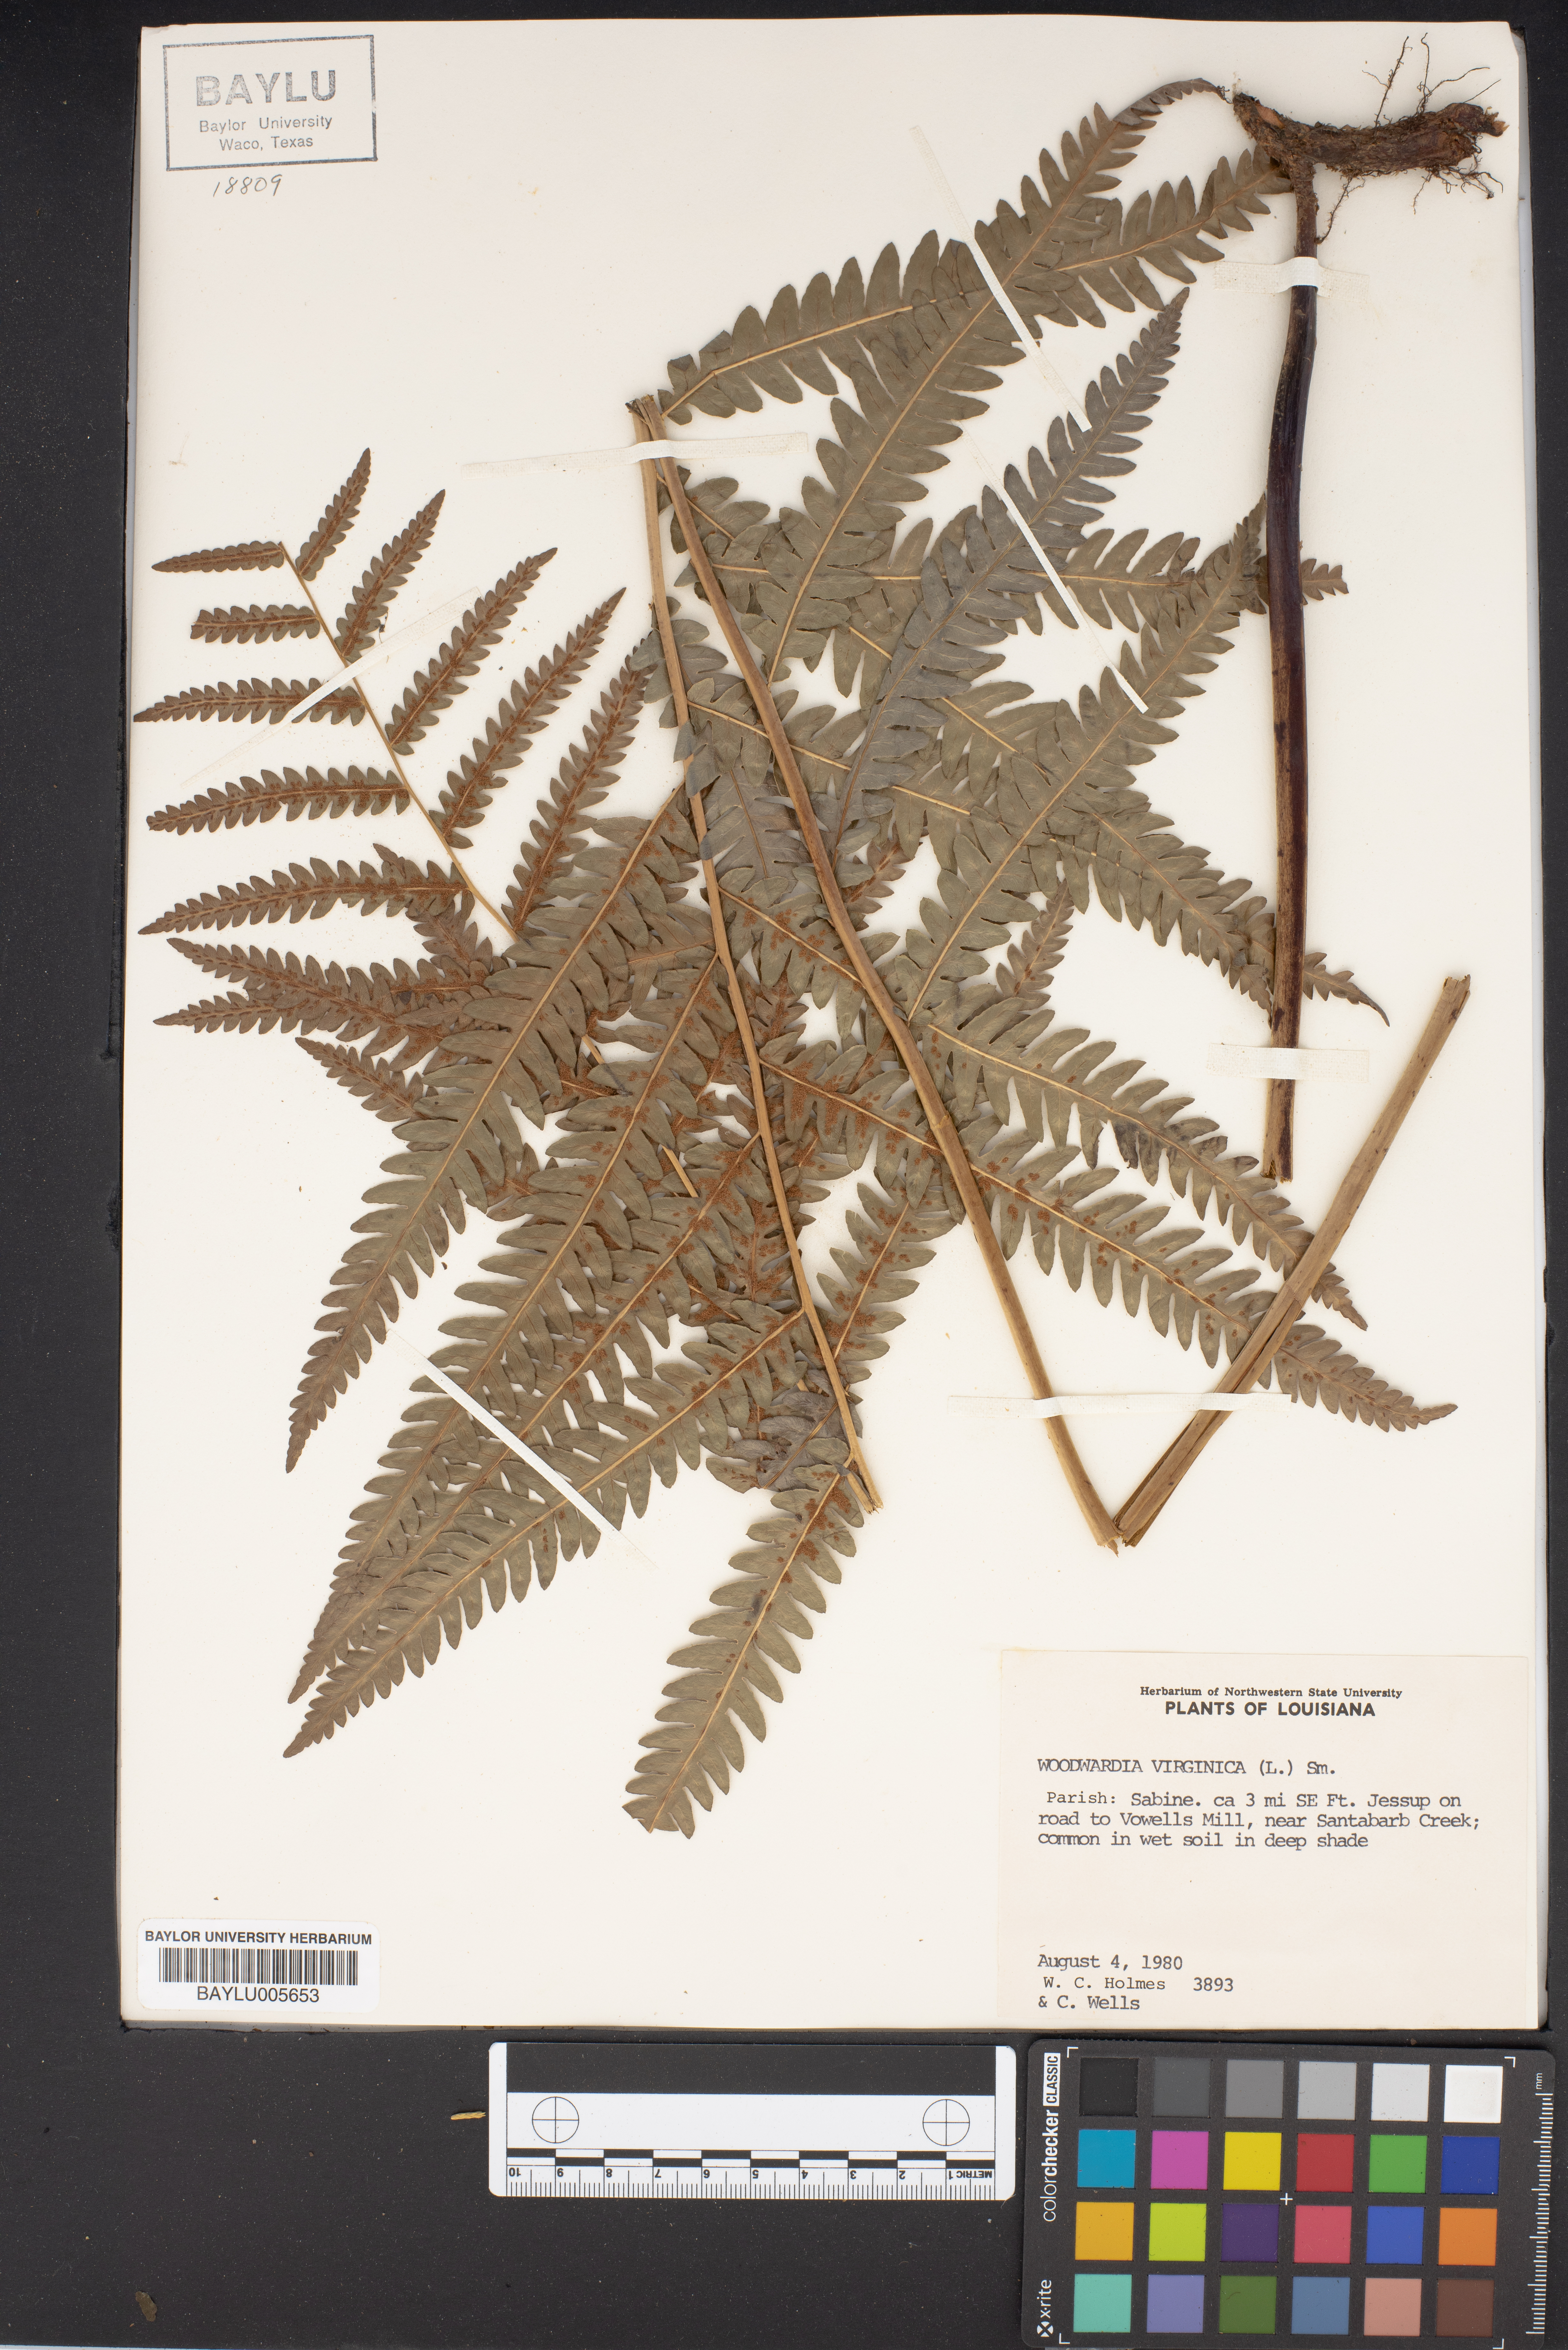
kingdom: Plantae
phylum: Tracheophyta
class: Polypodiopsida
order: Polypodiales
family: Blechnaceae
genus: Anchistea
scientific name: Anchistea virginica
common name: Virginia chain fern
